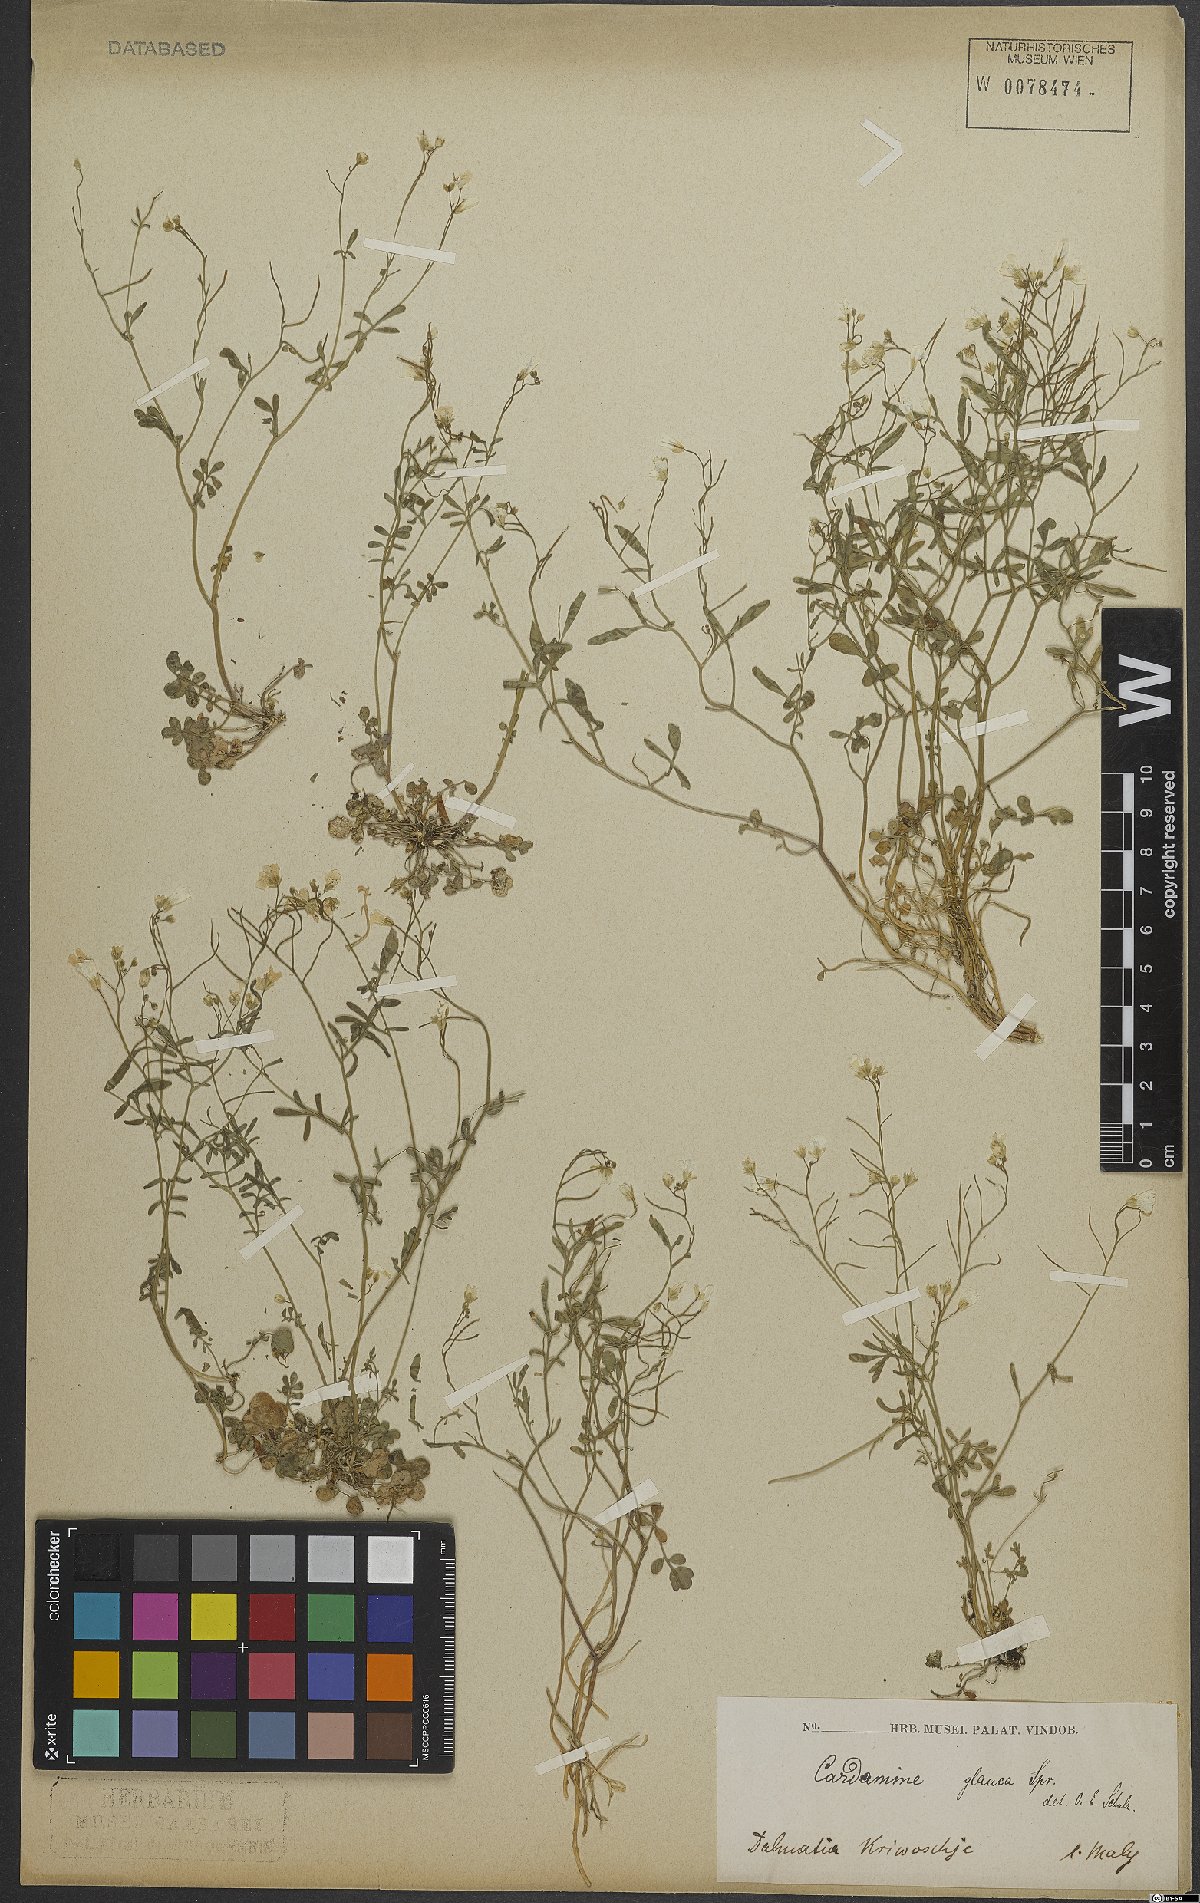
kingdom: Plantae
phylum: Tracheophyta
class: Magnoliopsida
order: Brassicales
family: Brassicaceae
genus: Cardamine
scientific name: Cardamine glauca
